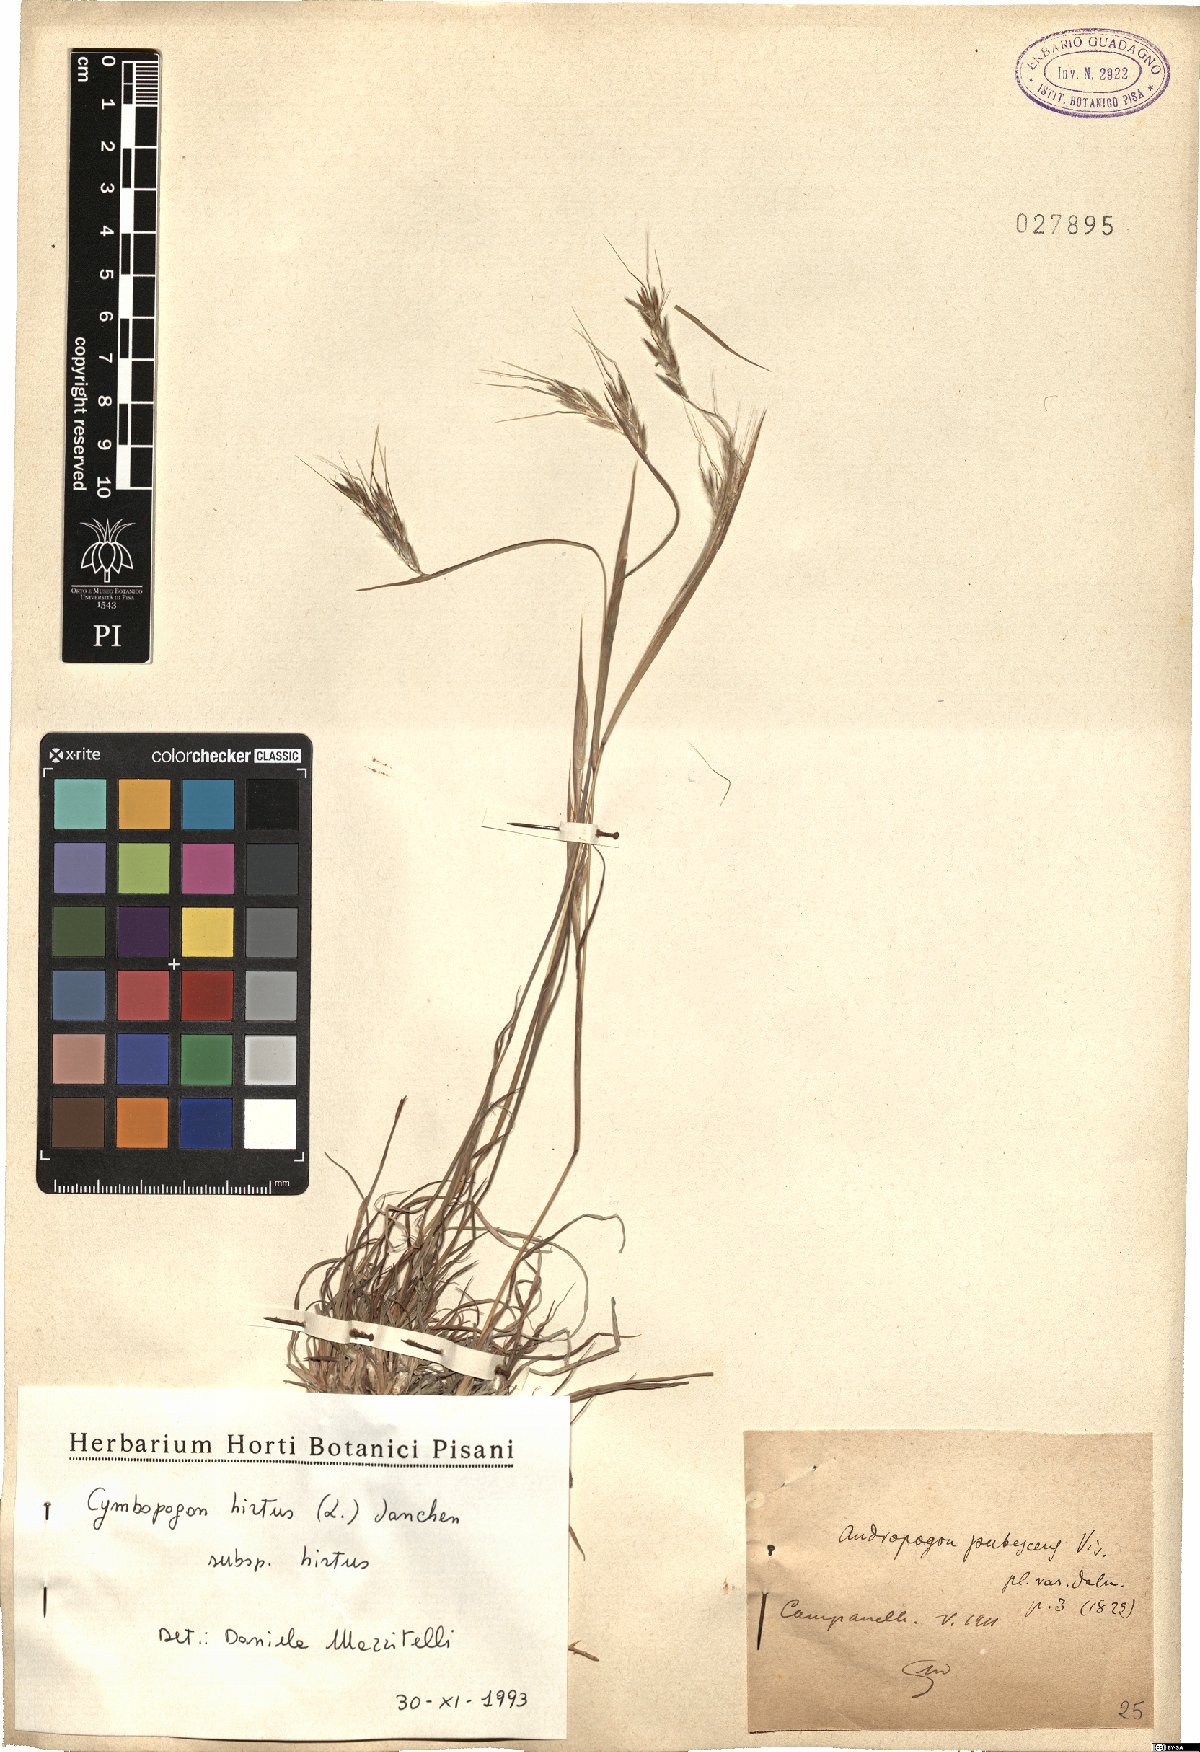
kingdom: Plantae
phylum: Tracheophyta
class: Liliopsida
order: Poales
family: Poaceae
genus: Cymbopogon
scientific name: Cymbopogon hirtus
